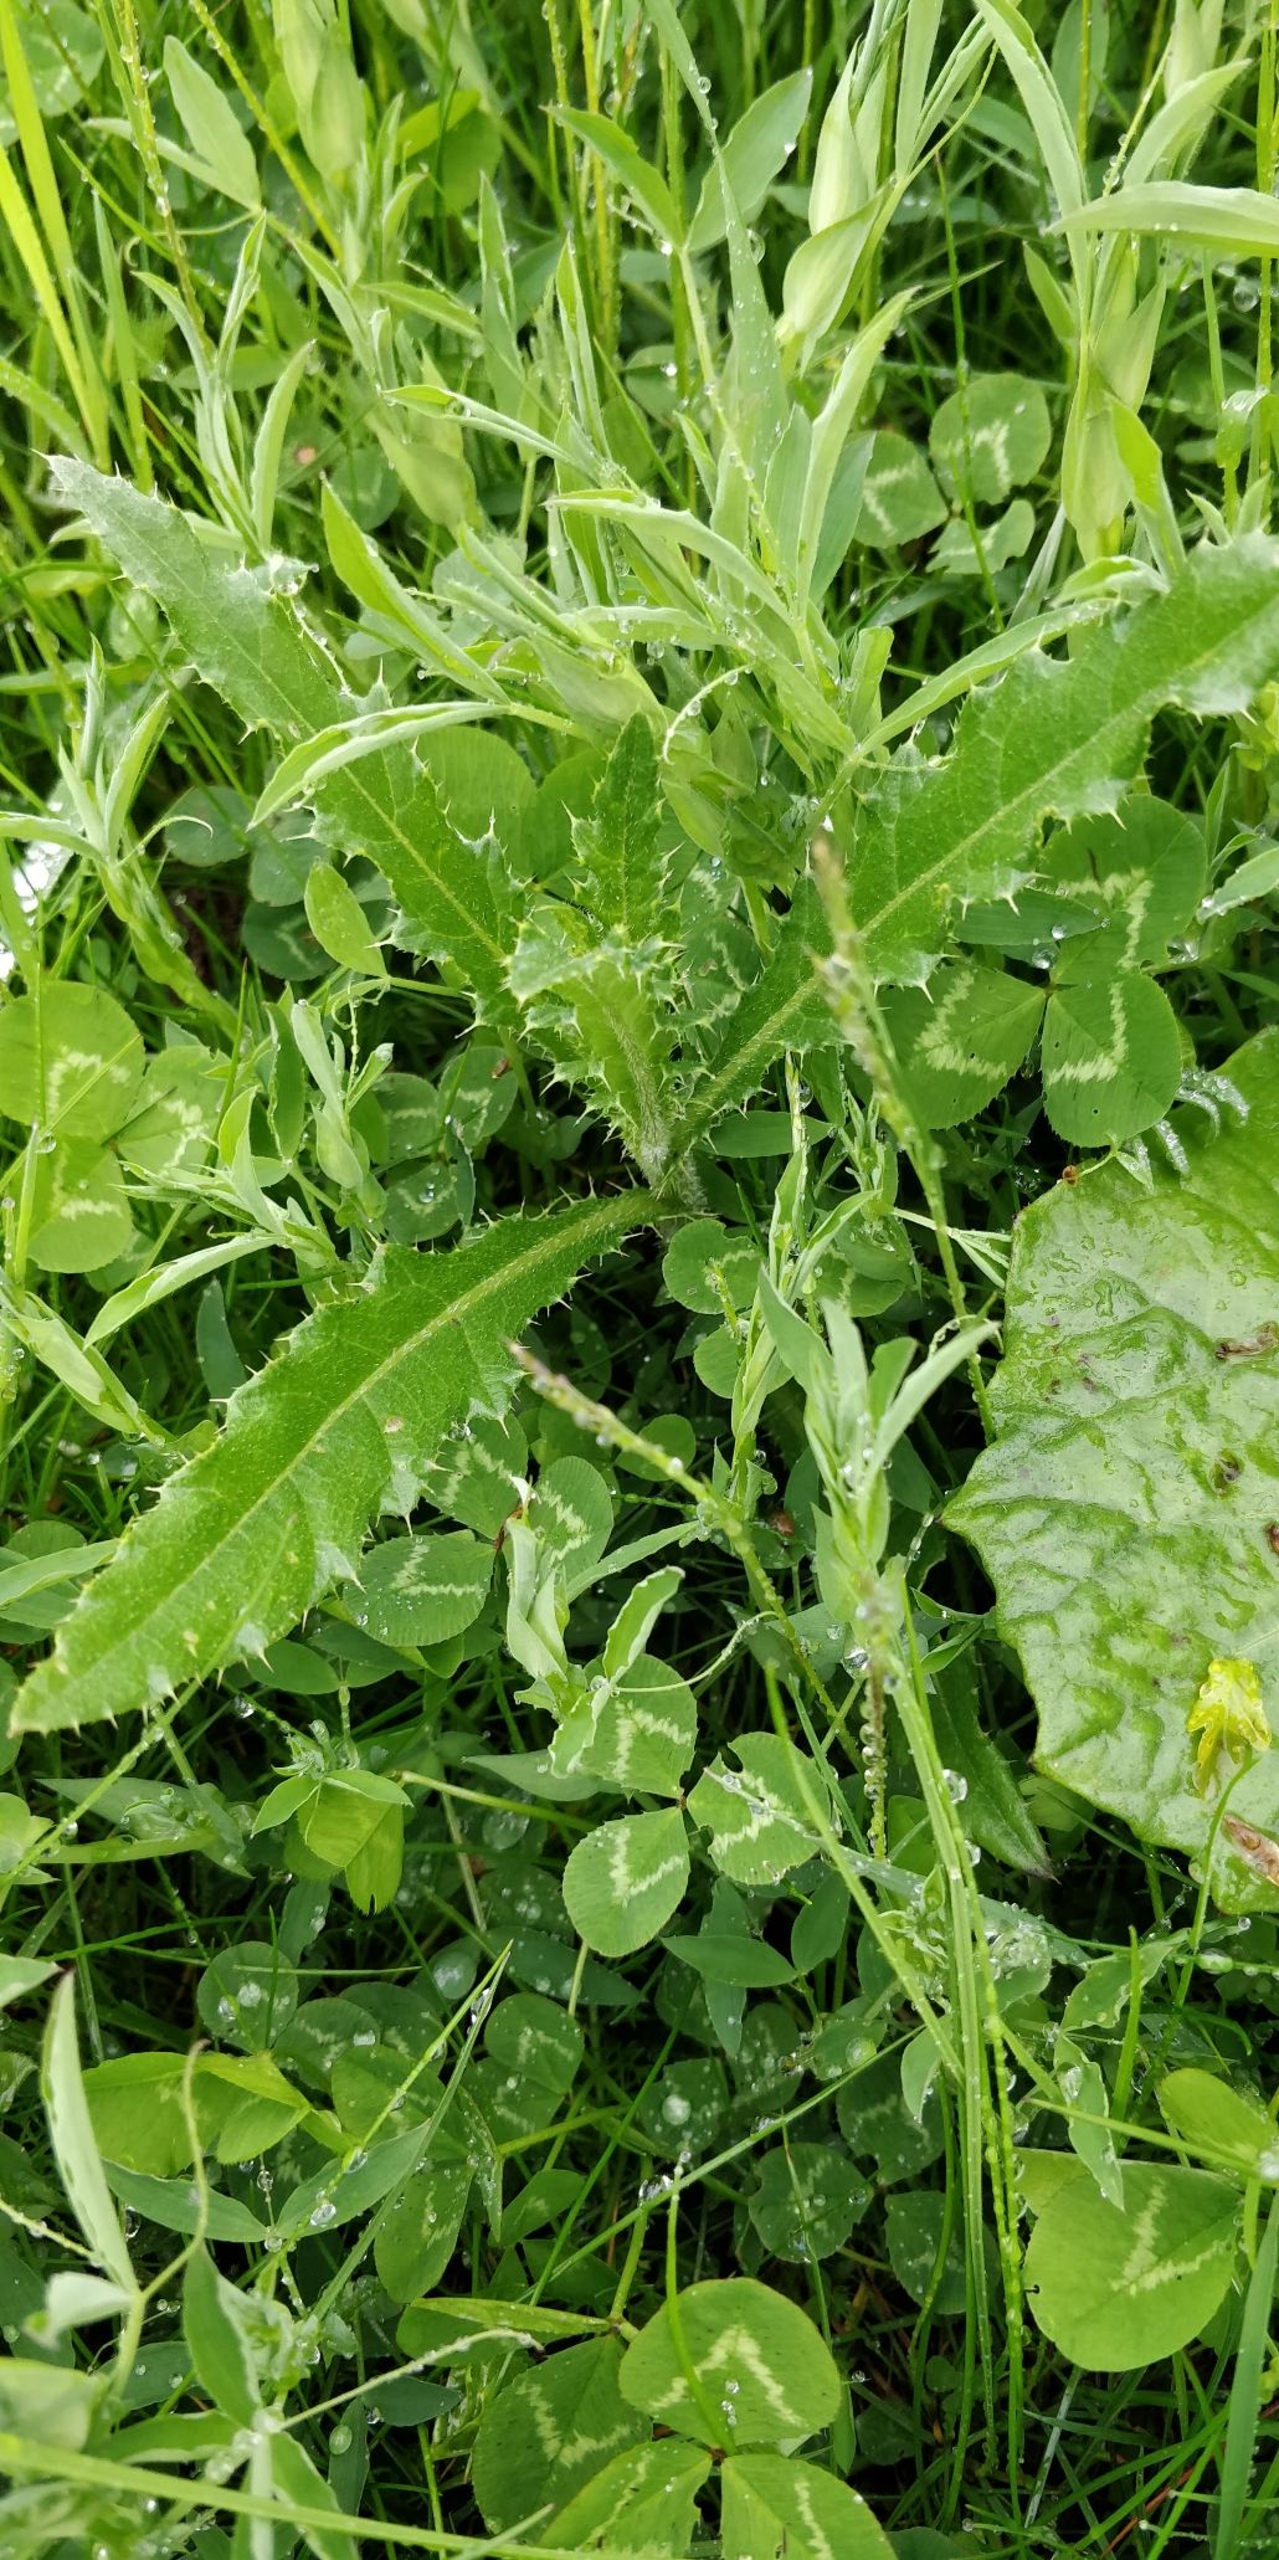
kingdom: Plantae
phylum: Tracheophyta
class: Magnoliopsida
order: Asterales
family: Asteraceae
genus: Cirsium
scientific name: Cirsium arvense
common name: Ager-tidsel
